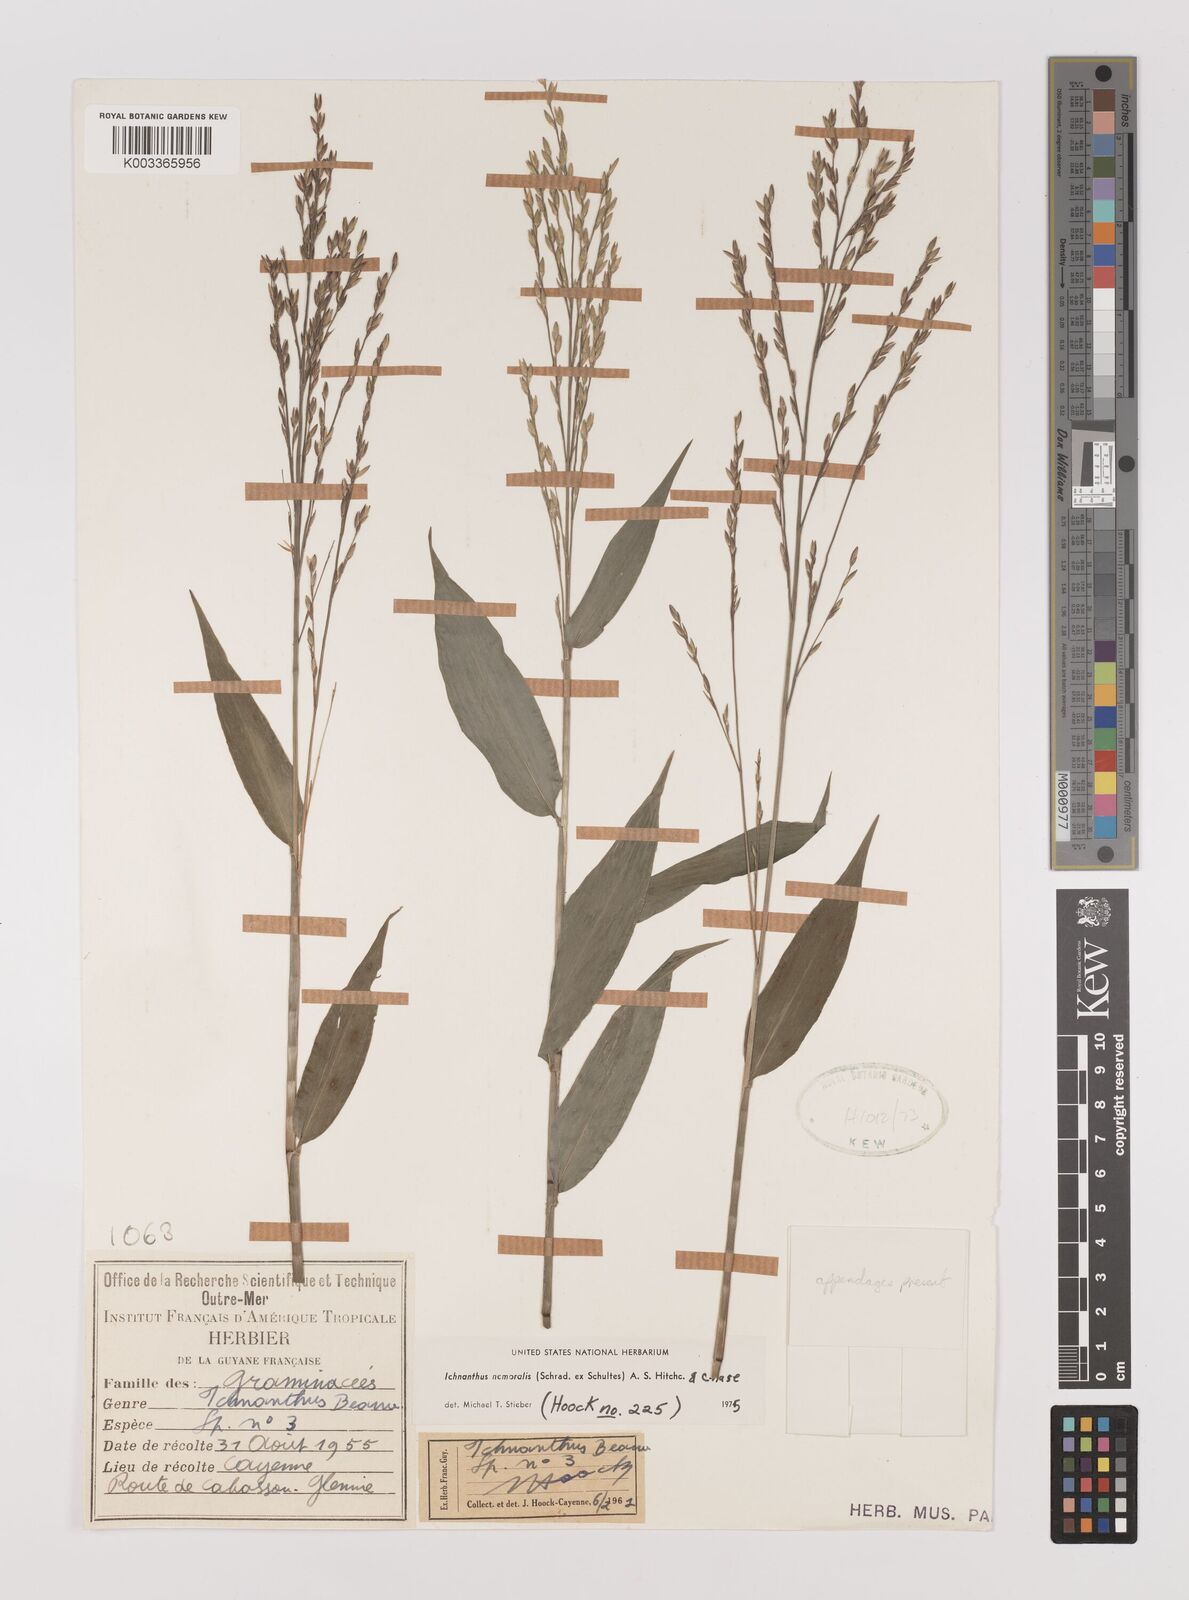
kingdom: Plantae
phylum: Tracheophyta
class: Liliopsida
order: Poales
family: Poaceae
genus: Ichnanthus
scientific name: Ichnanthus nemoralis
